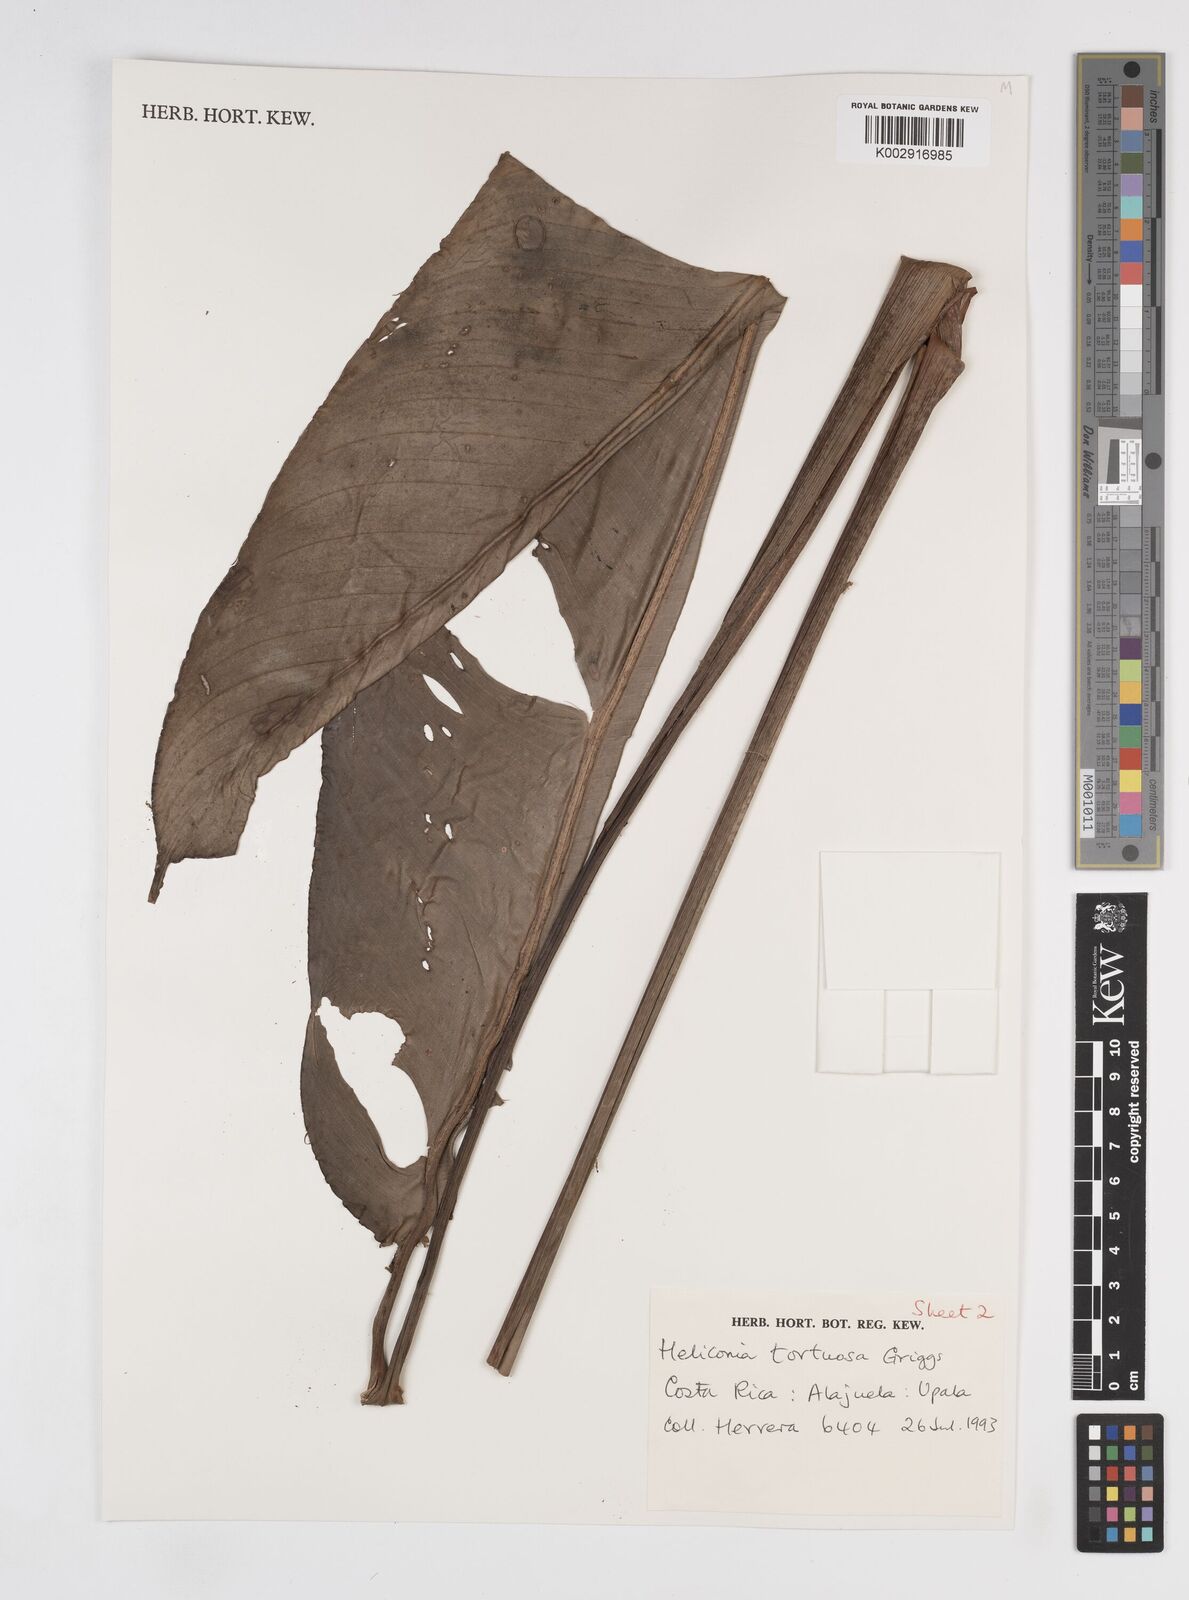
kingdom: Plantae
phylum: Tracheophyta
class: Liliopsida
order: Zingiberales
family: Heliconiaceae
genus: Heliconia
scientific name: Heliconia tortuosa
